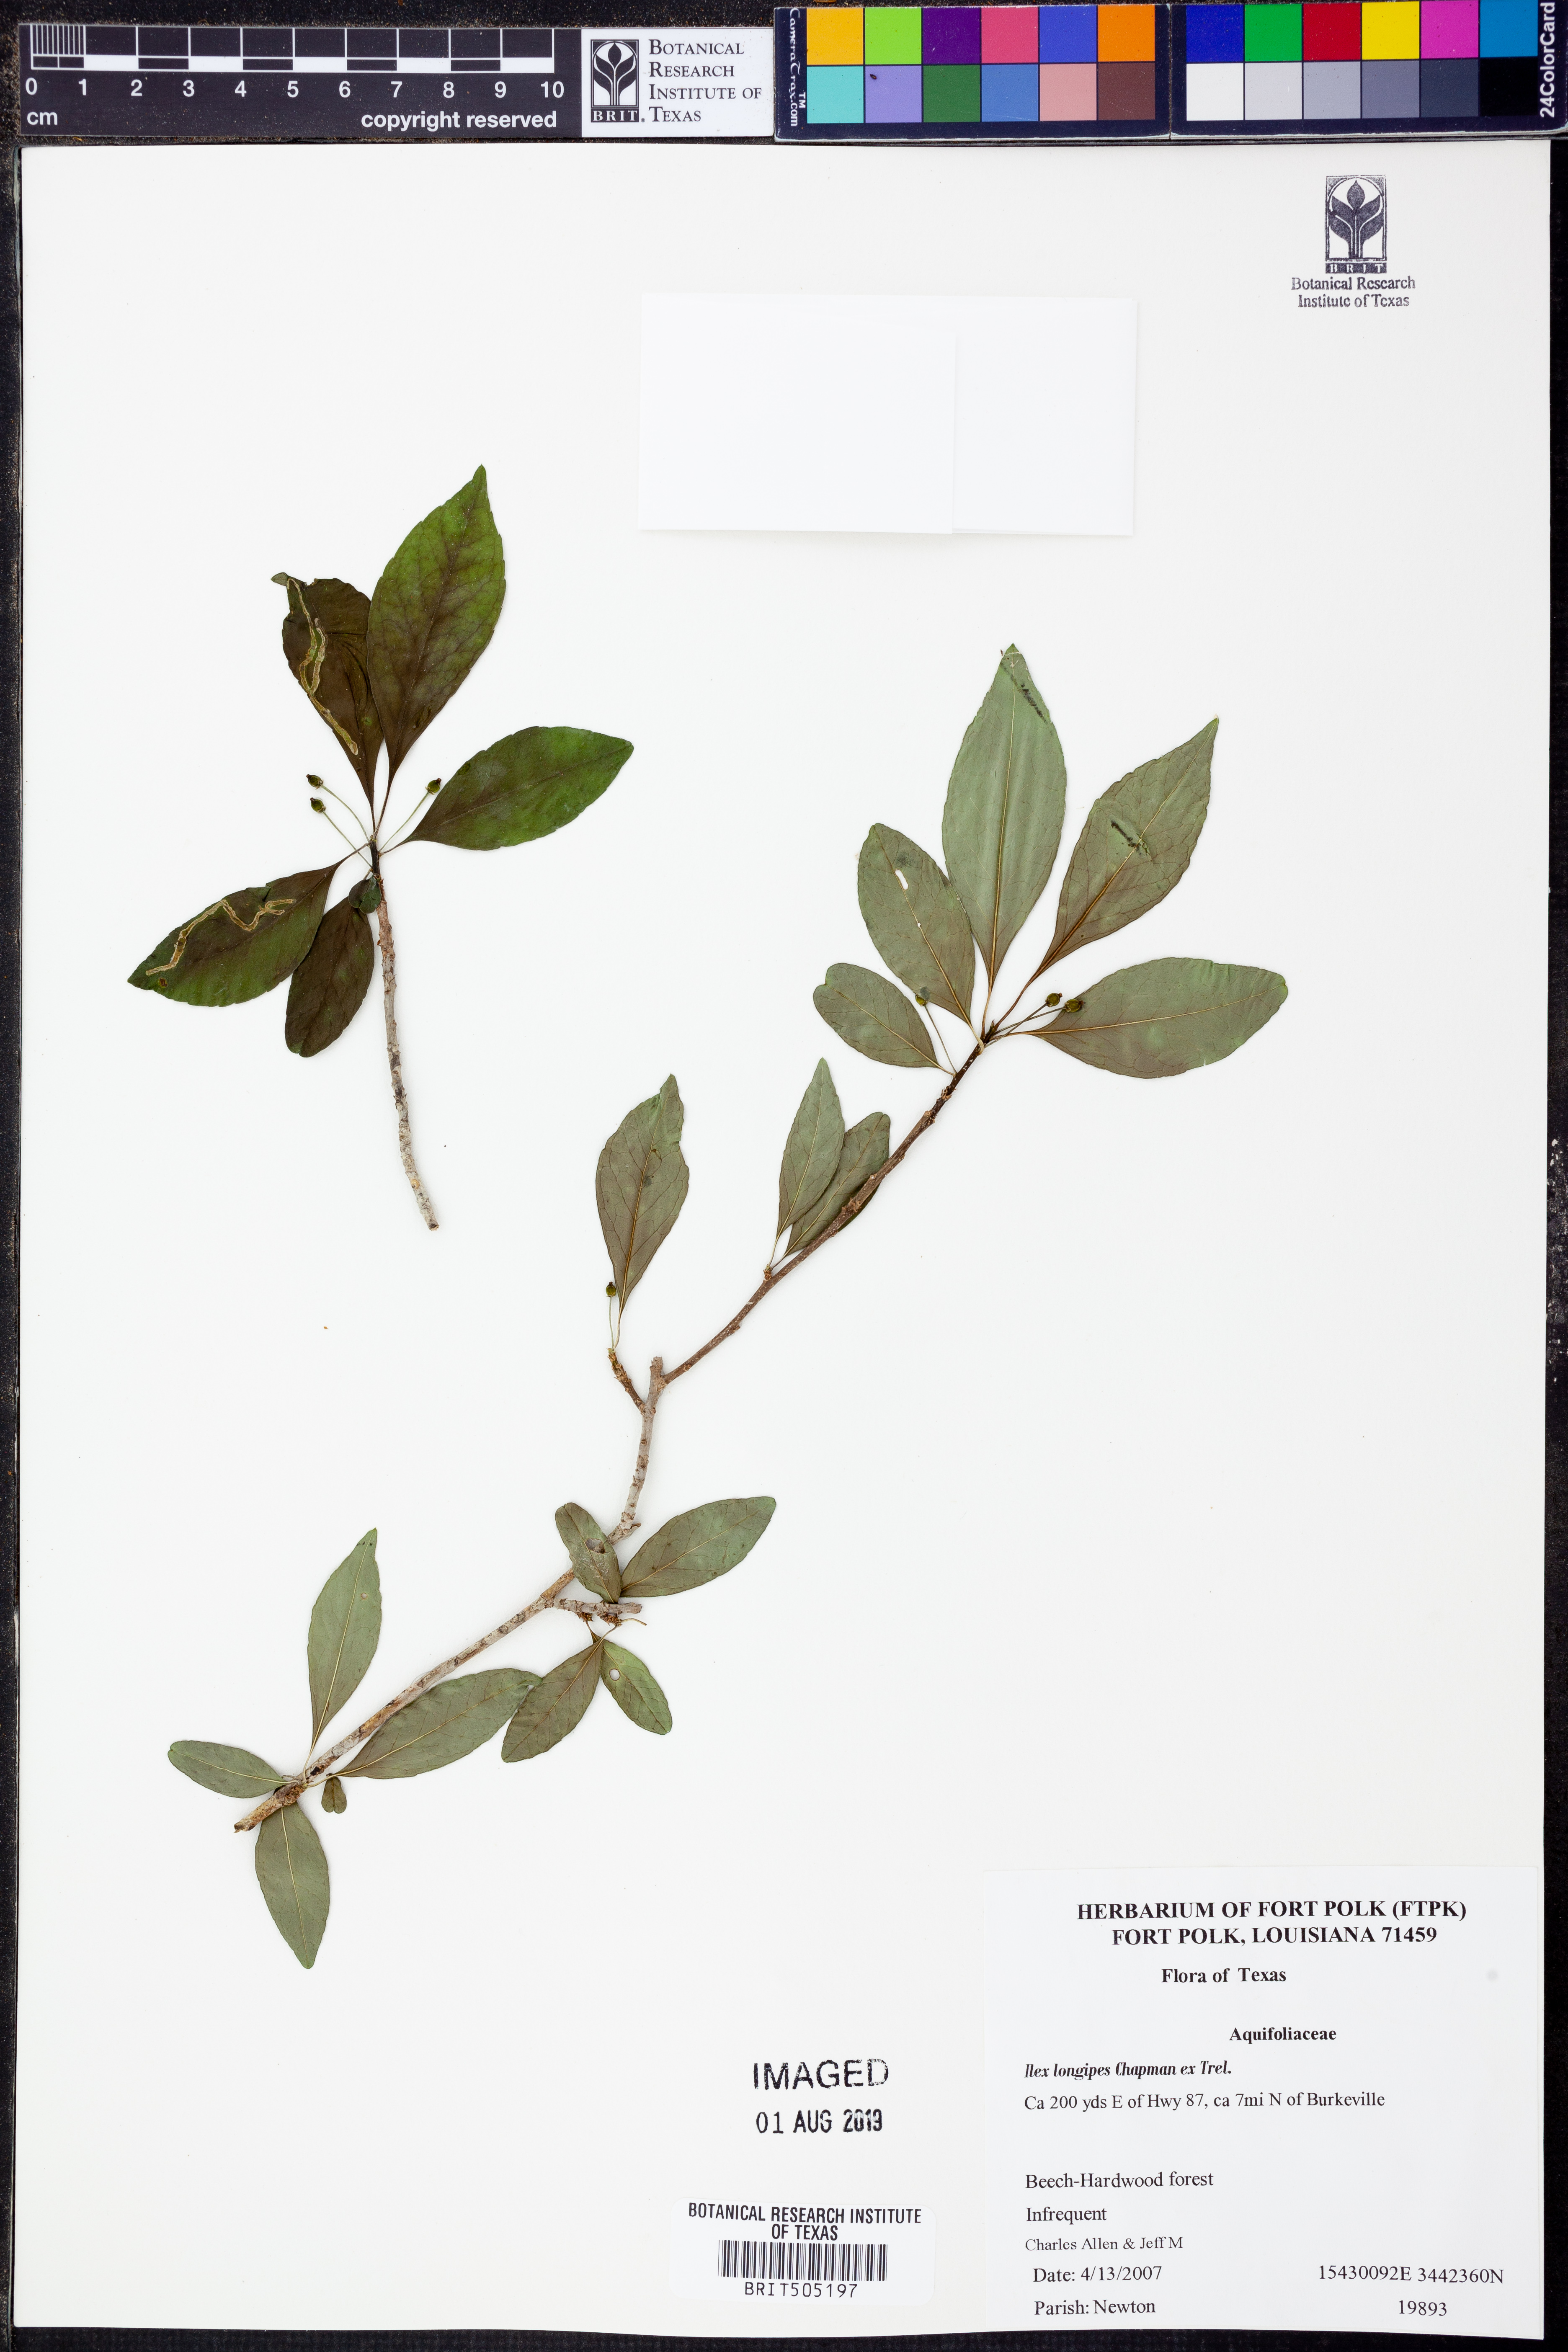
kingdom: Plantae
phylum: Tracheophyta
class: Magnoliopsida
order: Aquifoliales
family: Aquifoliaceae
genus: Ilex
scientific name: Ilex longipes
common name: Georgia holly
